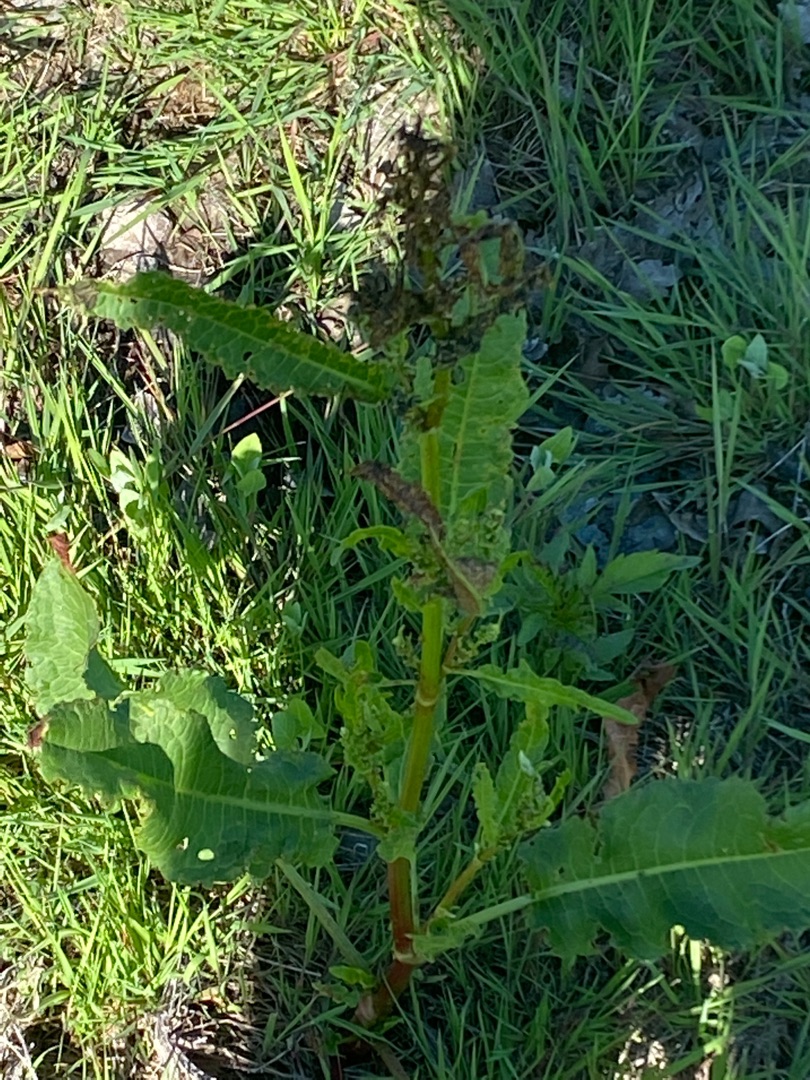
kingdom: Plantae
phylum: Tracheophyta
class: Magnoliopsida
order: Caryophyllales
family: Polygonaceae
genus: Rumex
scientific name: Rumex crispus
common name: Kruset skræppe
